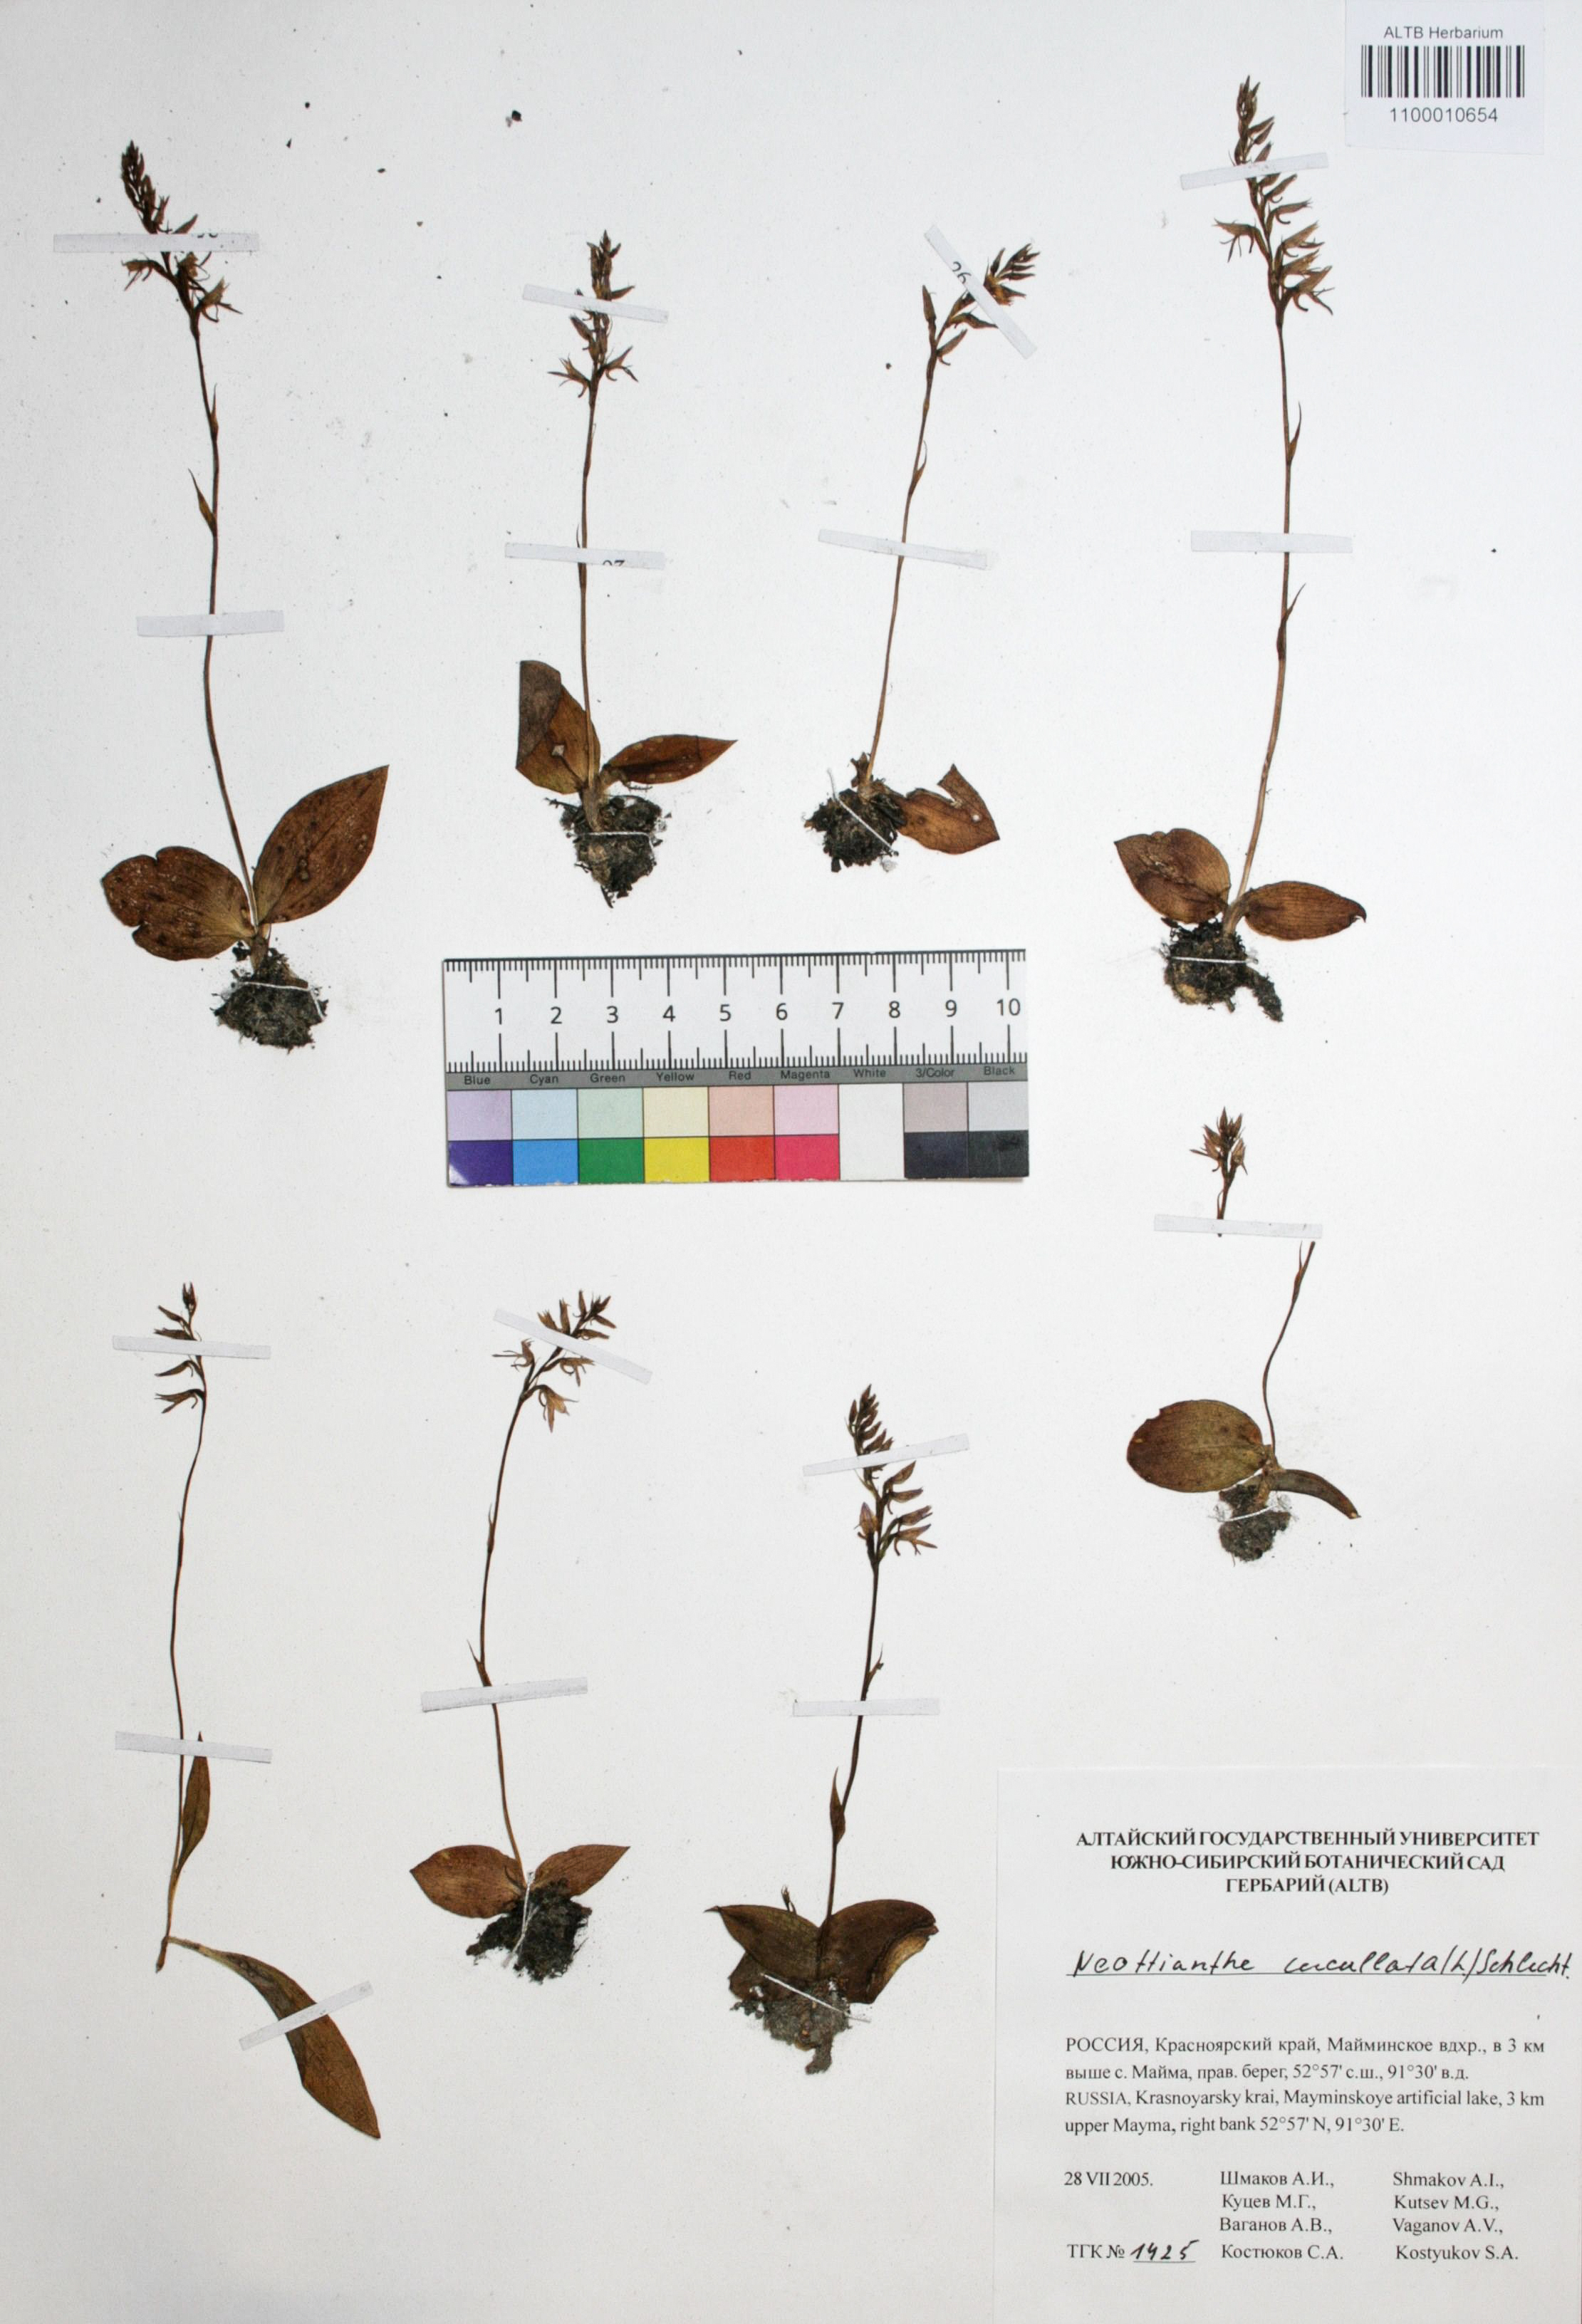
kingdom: Plantae
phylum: Tracheophyta
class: Liliopsida
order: Asparagales
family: Orchidaceae
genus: Hemipilia
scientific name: Hemipilia cucullata
